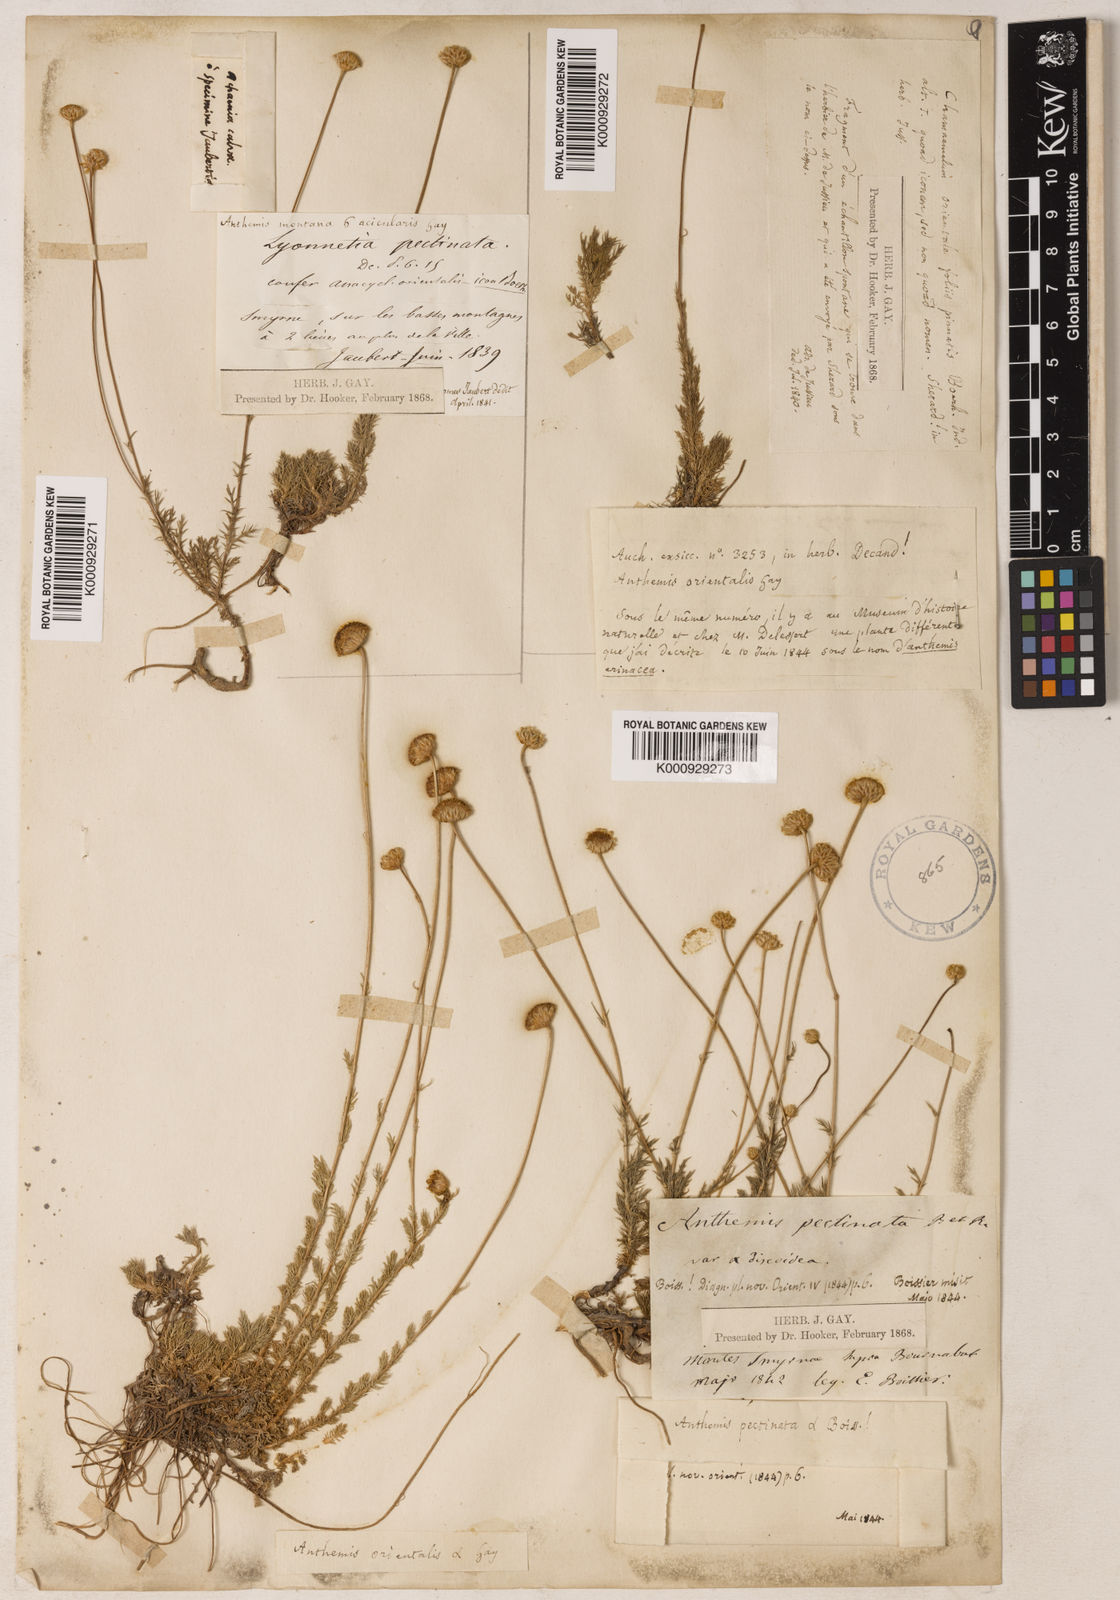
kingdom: Plantae
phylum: Tracheophyta
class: Magnoliopsida
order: Asterales
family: Asteraceae
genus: Anthemis
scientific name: Anthemis orientalis
